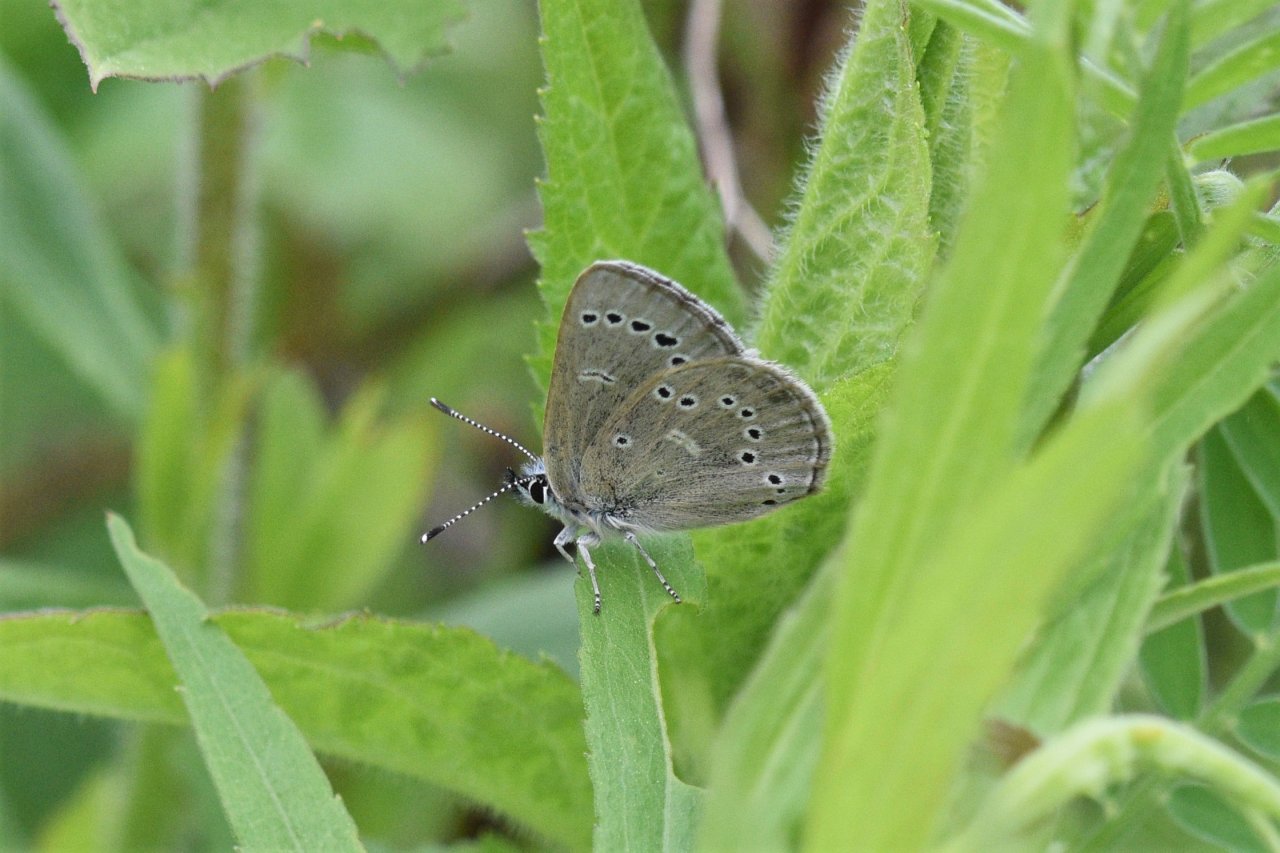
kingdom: Animalia
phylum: Arthropoda
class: Insecta
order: Lepidoptera
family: Lycaenidae
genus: Glaucopsyche
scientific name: Glaucopsyche lygdamus
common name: Silvery Blue
